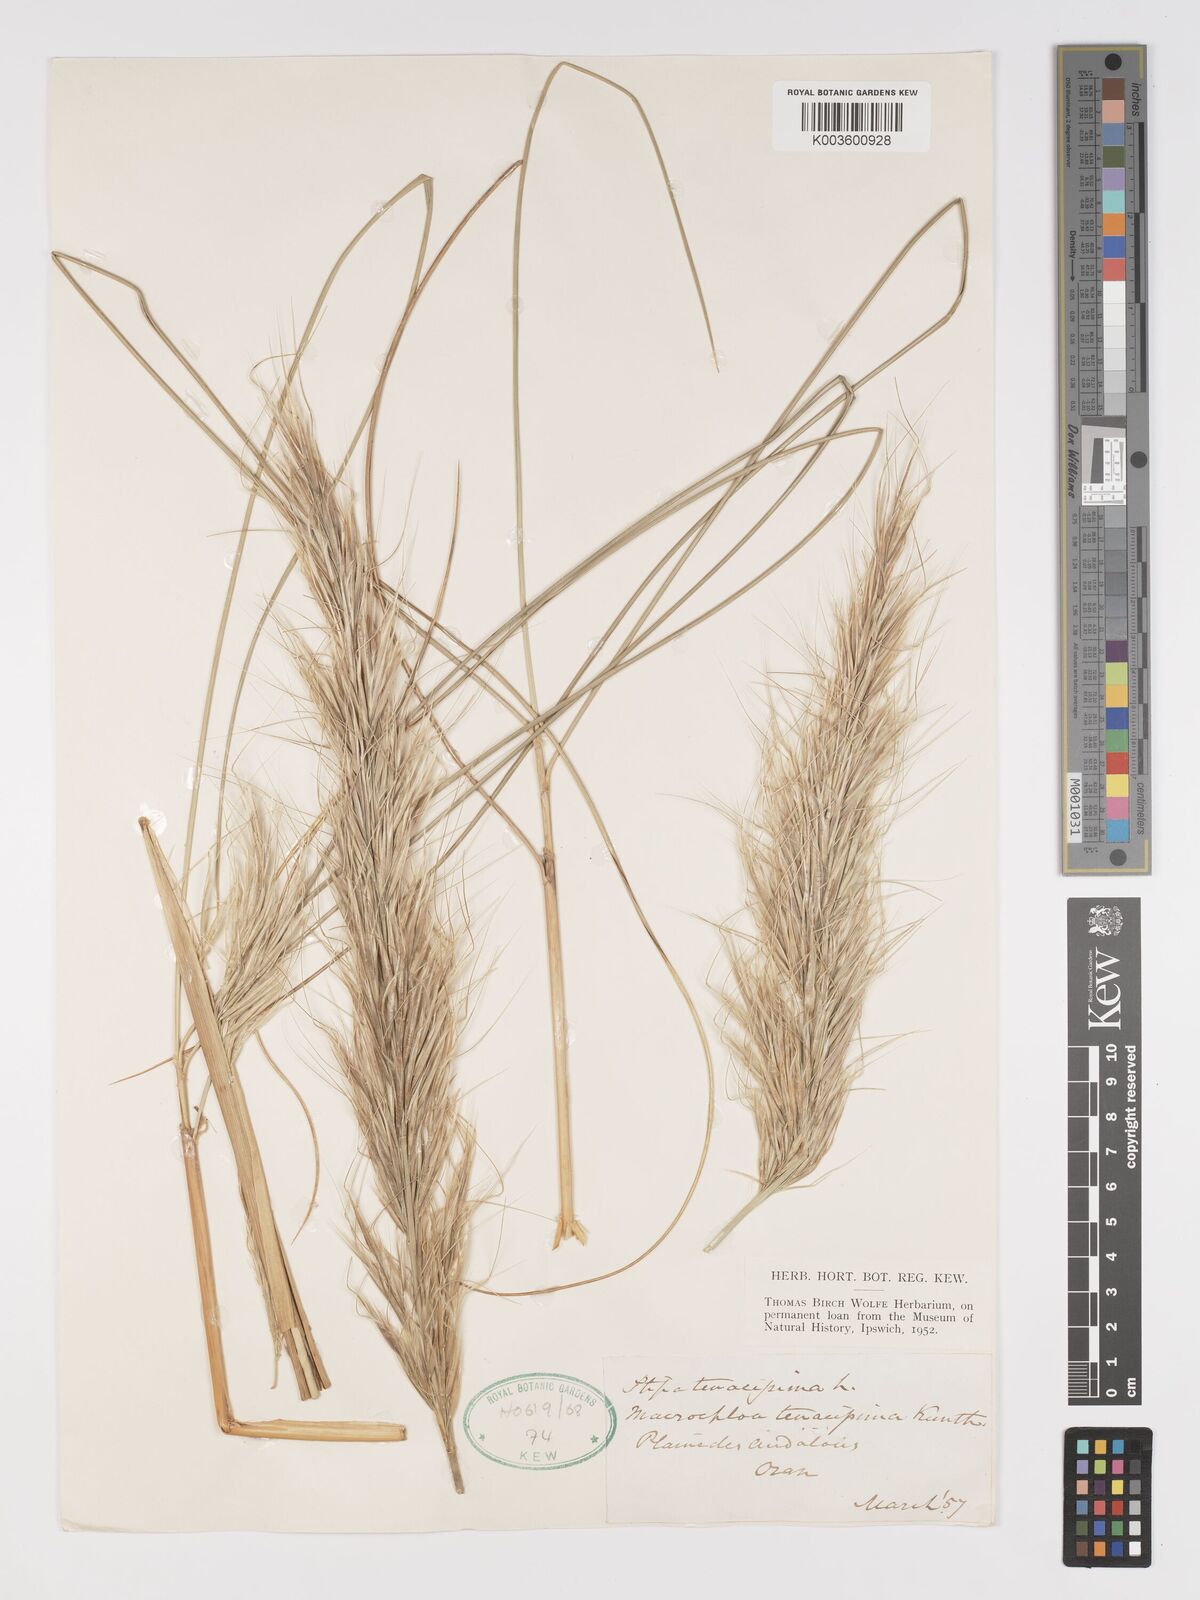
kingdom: Plantae
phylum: Tracheophyta
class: Liliopsida
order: Poales
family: Poaceae
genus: Macrochloa
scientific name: Macrochloa tenacissima
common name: Alfa grass
